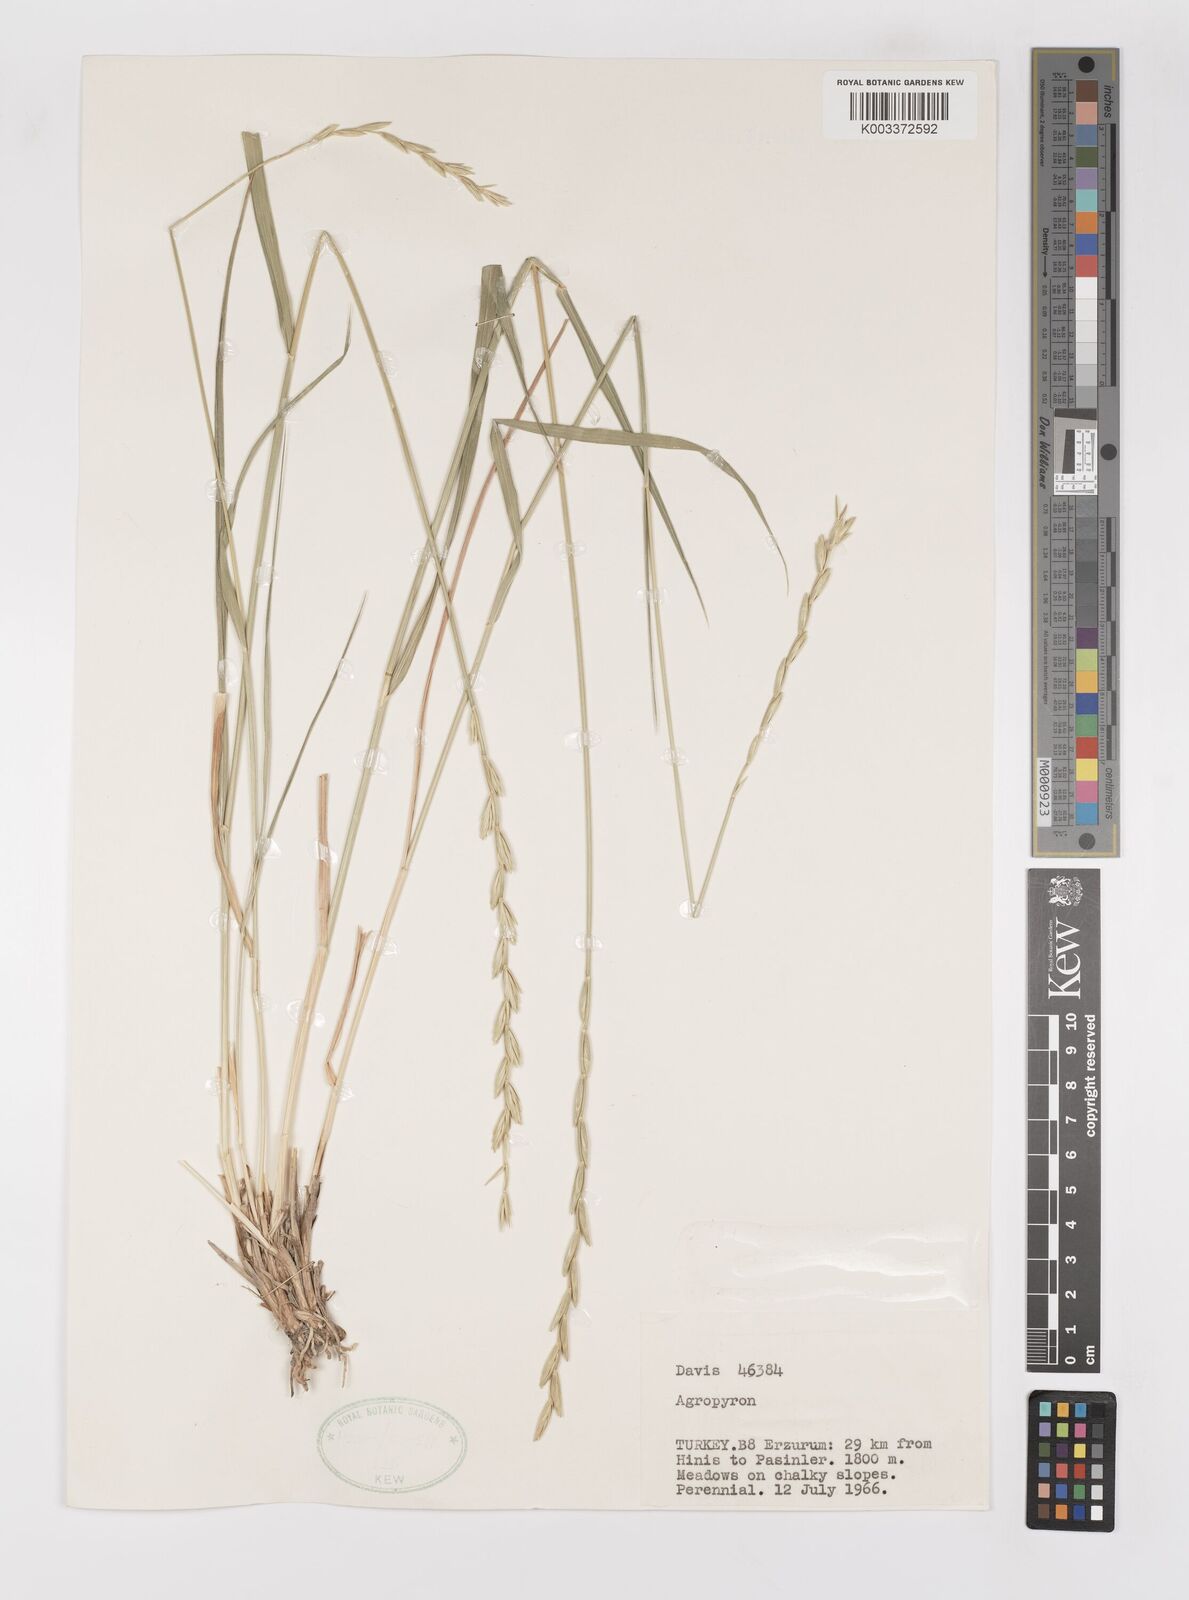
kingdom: Plantae
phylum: Tracheophyta
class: Liliopsida
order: Poales
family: Poaceae
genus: Elymus
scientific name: Elymus
